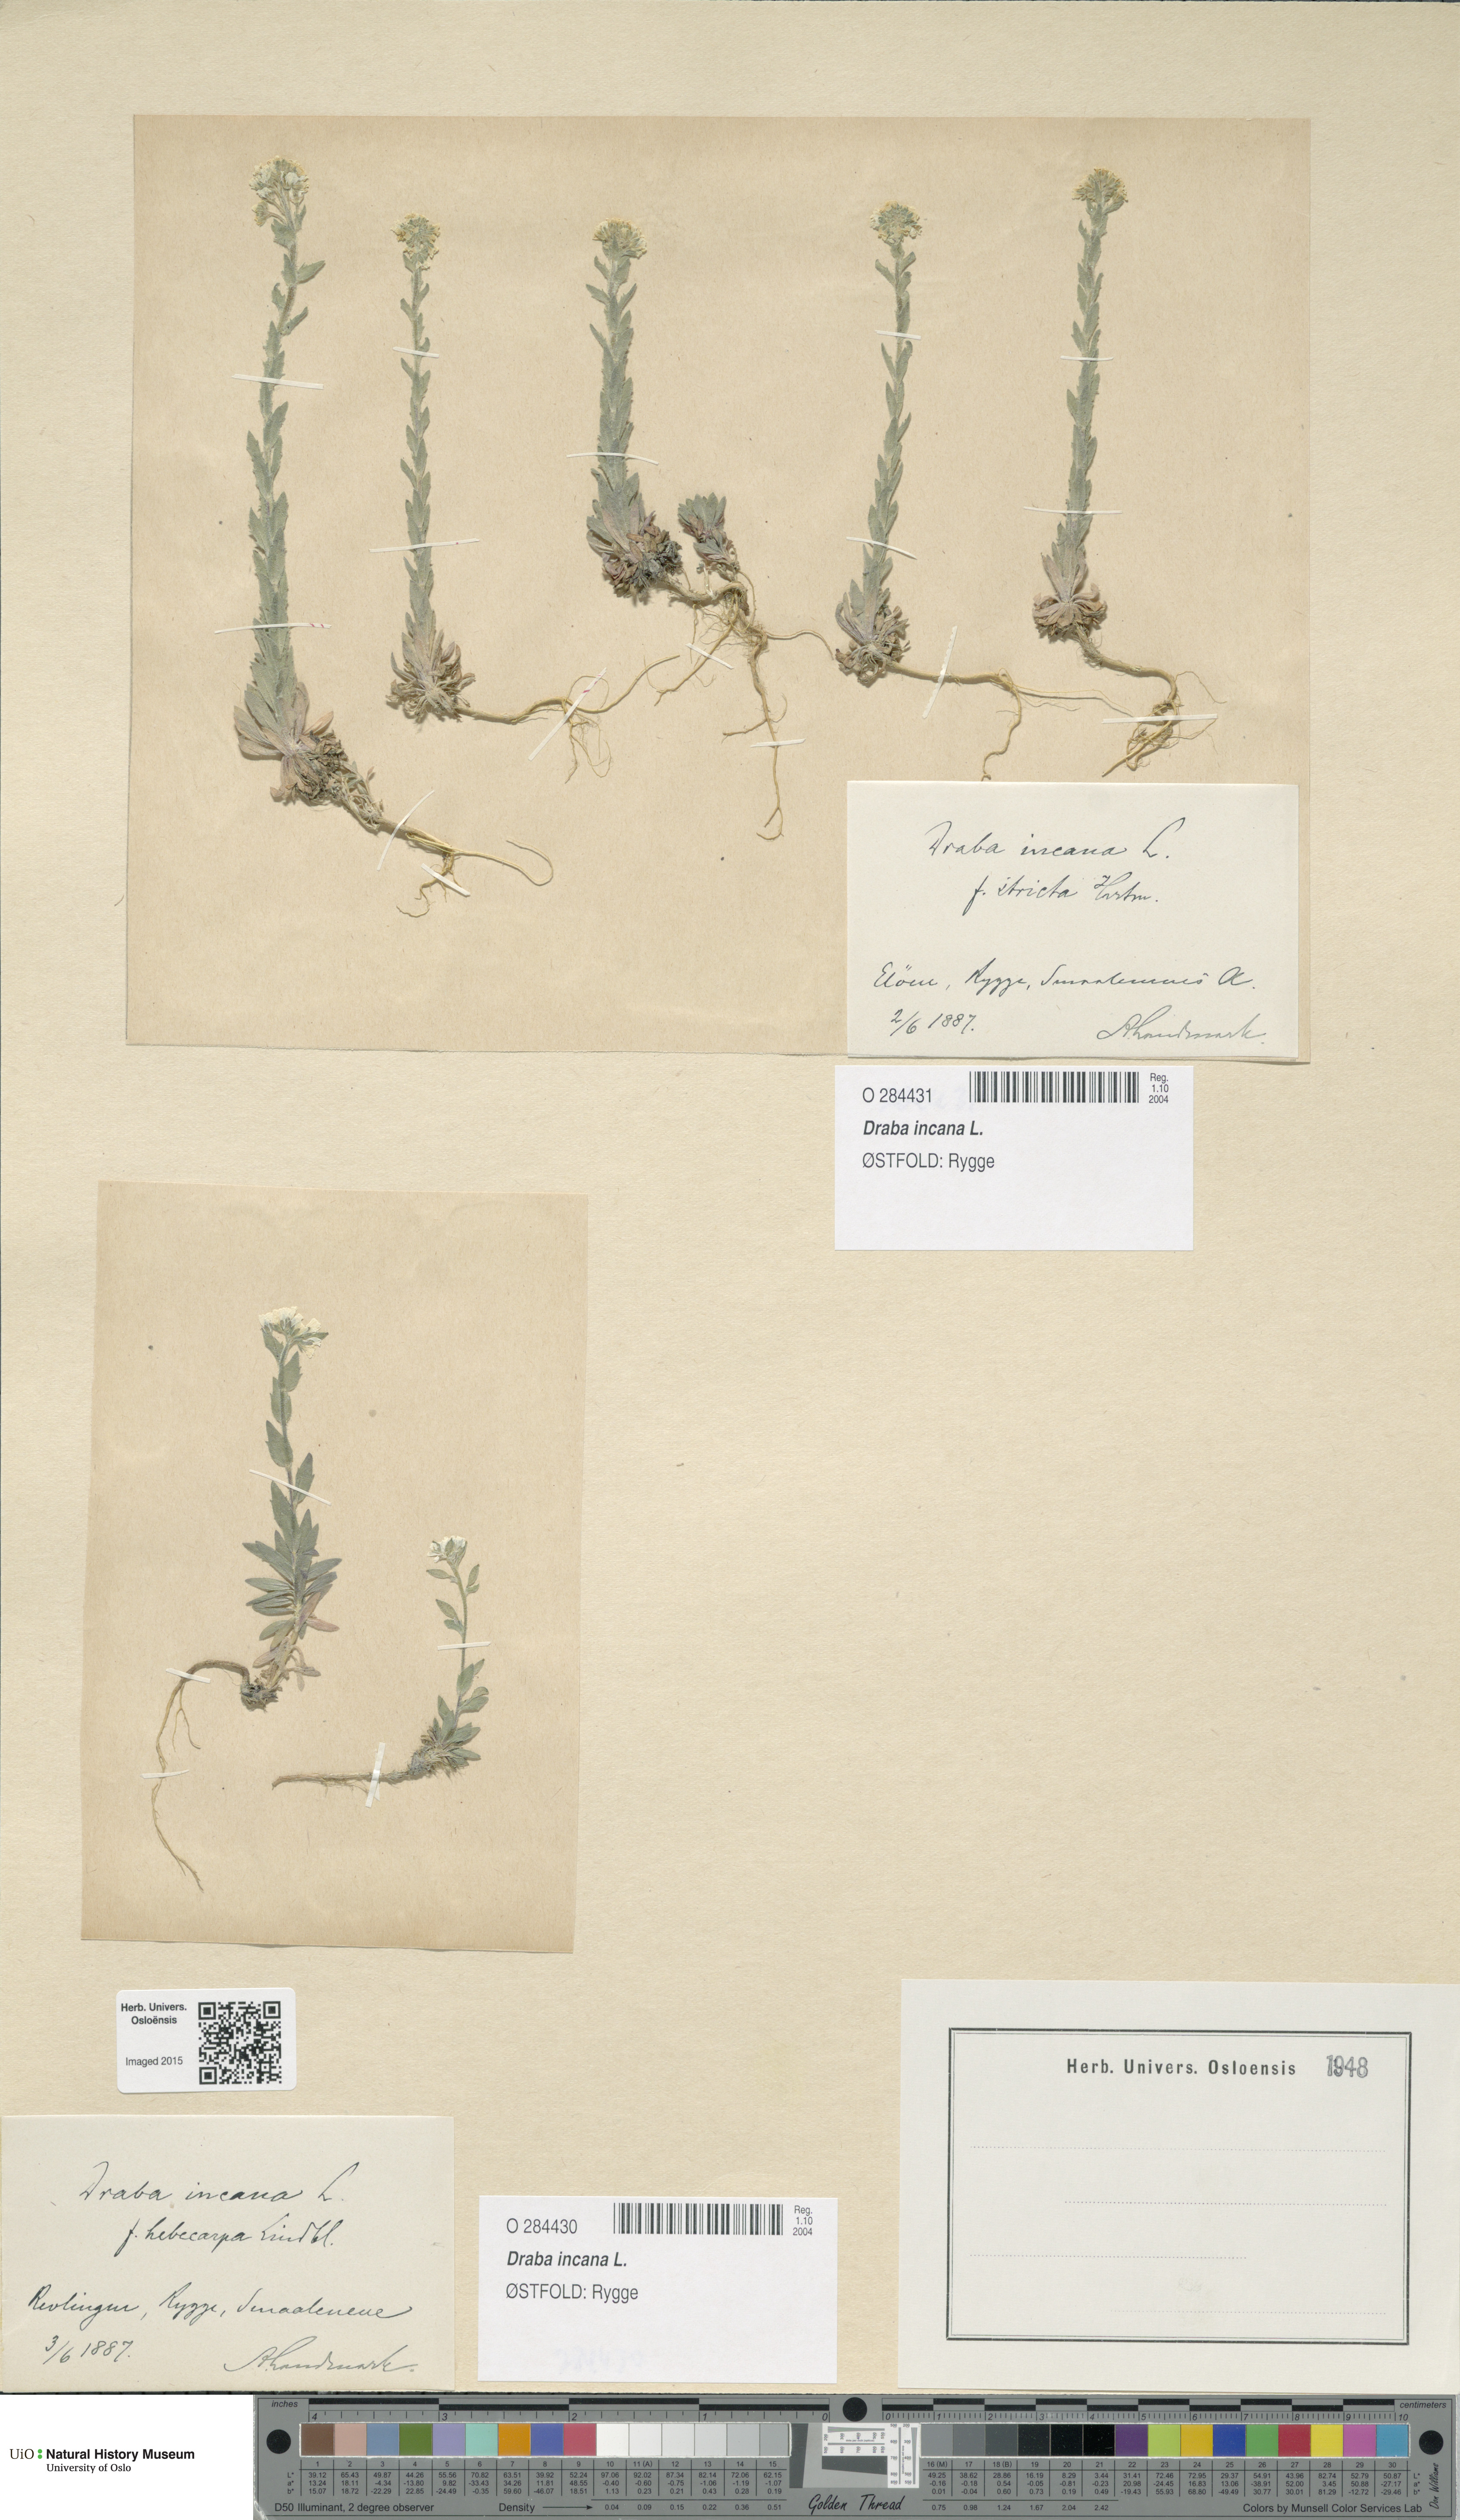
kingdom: Plantae
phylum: Tracheophyta
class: Magnoliopsida
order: Brassicales
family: Brassicaceae
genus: Draba
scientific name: Draba incana
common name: Hoary whitlow-grass
